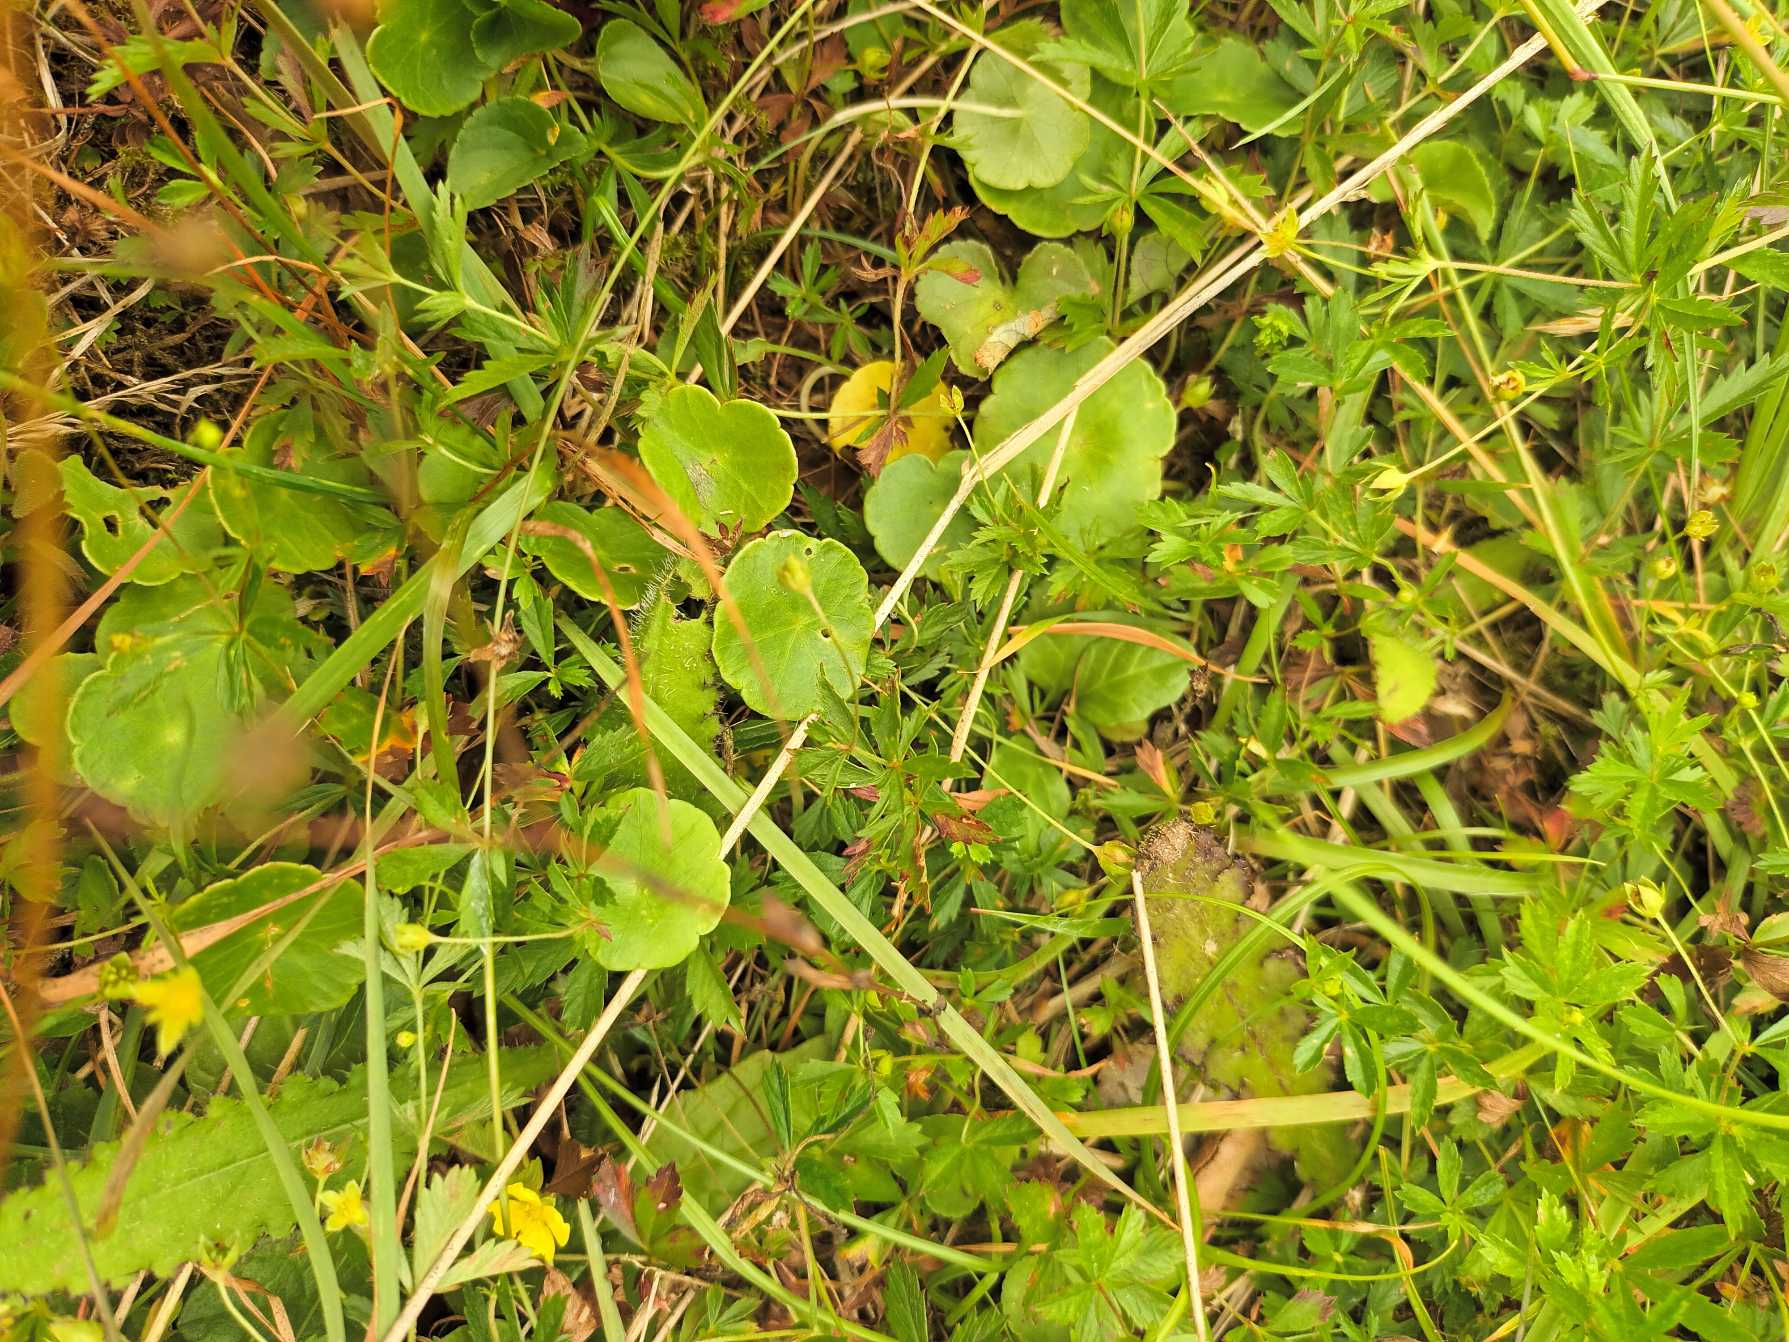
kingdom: Plantae
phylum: Tracheophyta
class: Magnoliopsida
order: Apiales
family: Araliaceae
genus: Hydrocotyle
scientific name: Hydrocotyle vulgaris
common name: Vandnavle
